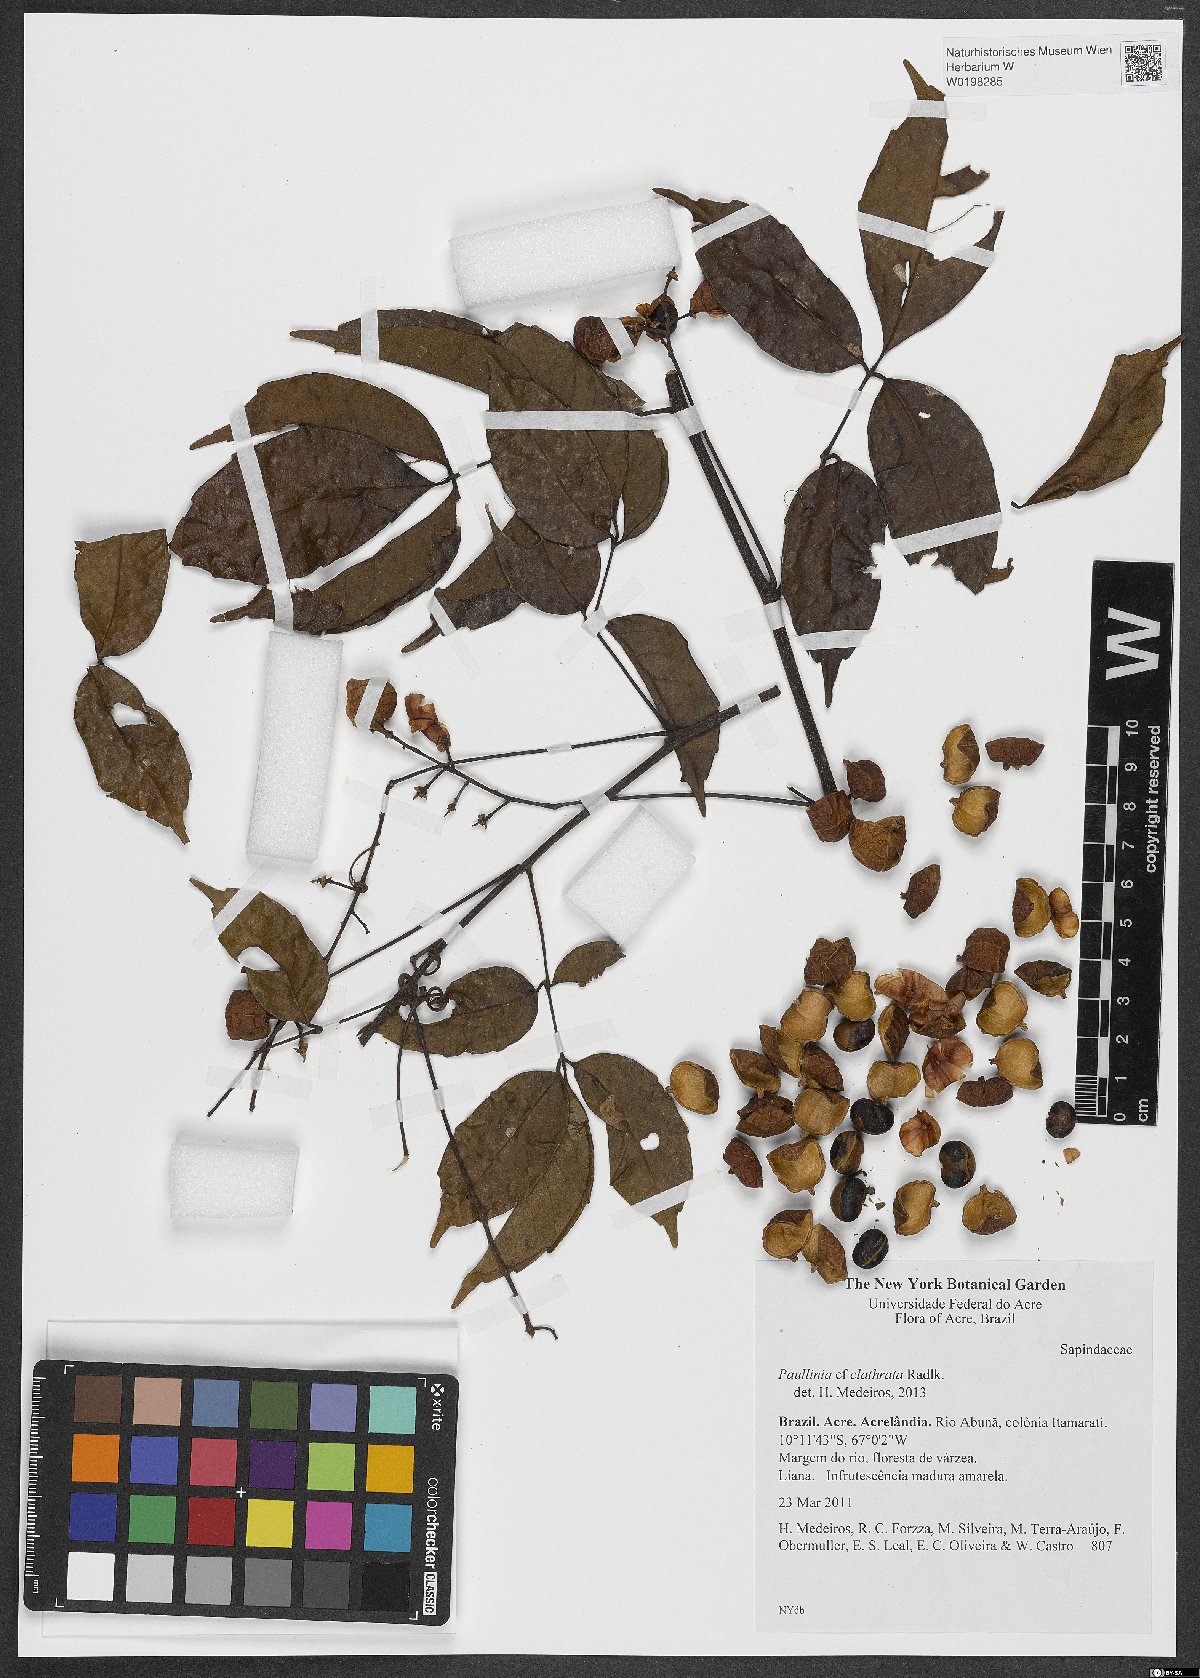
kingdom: Plantae
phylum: Tracheophyta
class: Magnoliopsida
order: Sapindales
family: Sapindaceae
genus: Paullinia
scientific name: Paullinia capreolata
